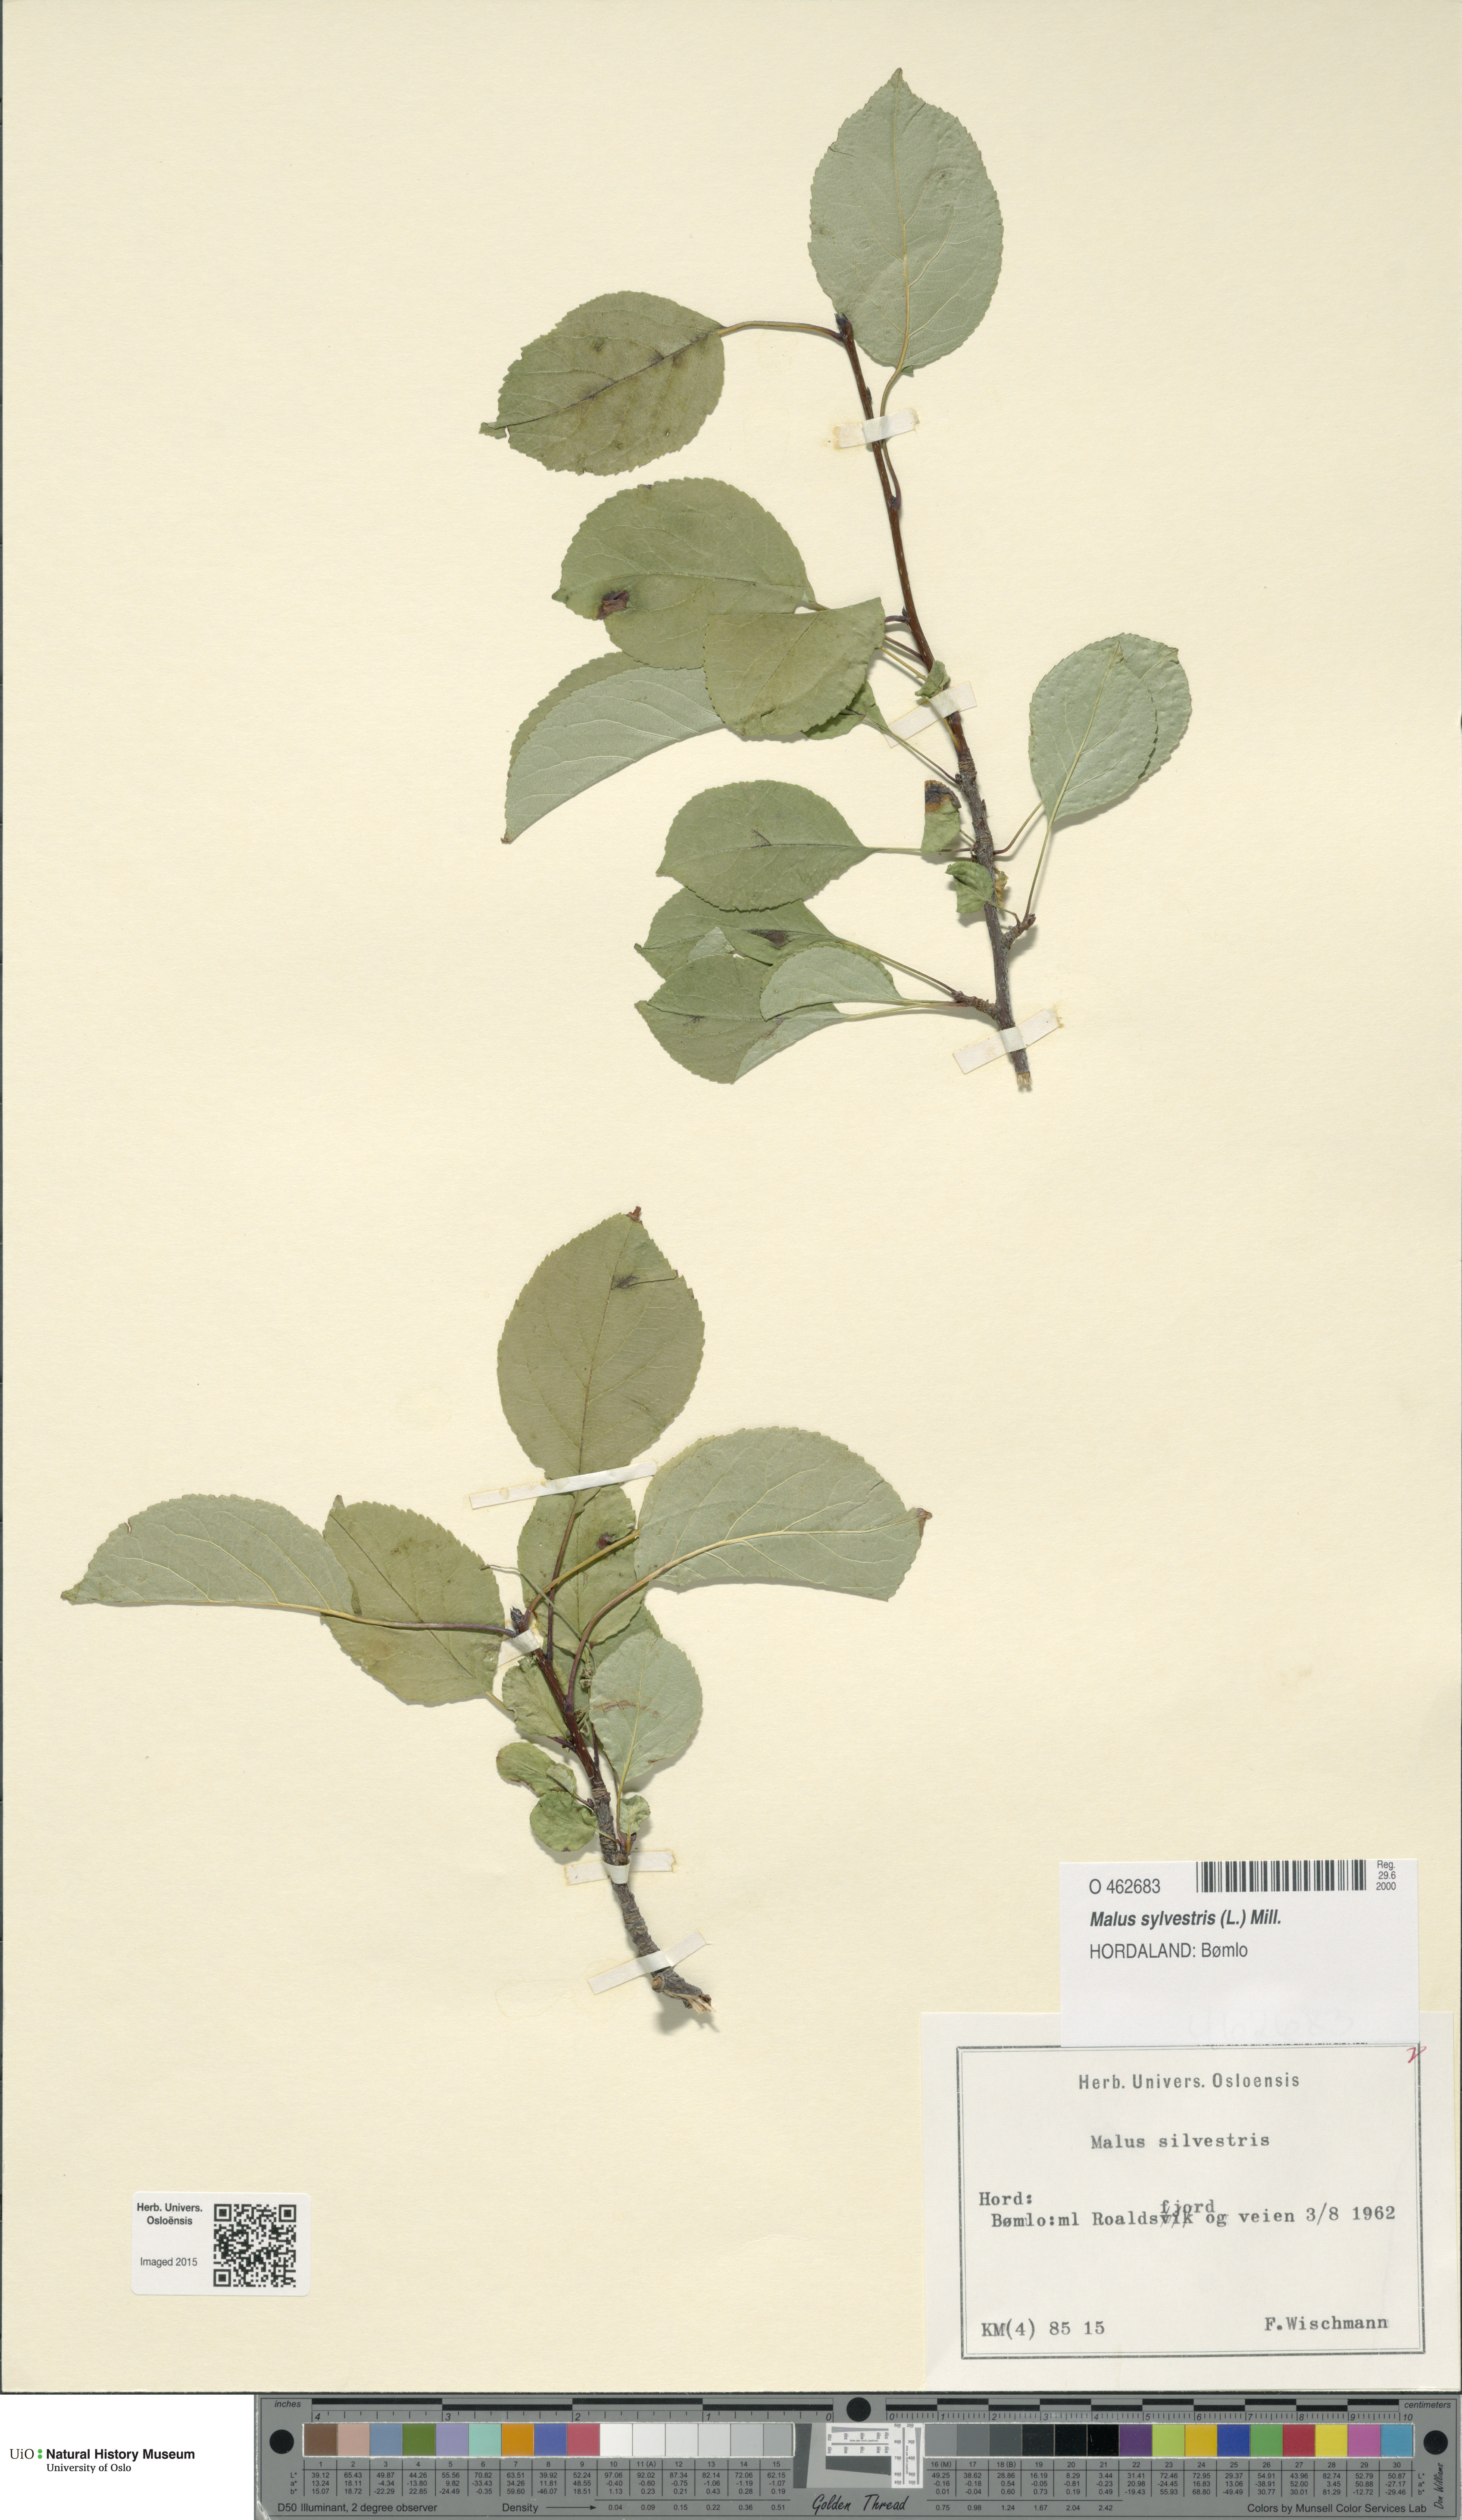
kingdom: Plantae
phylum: Tracheophyta
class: Magnoliopsida
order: Rosales
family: Rosaceae
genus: Malus
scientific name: Malus sylvestris
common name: Crab apple
